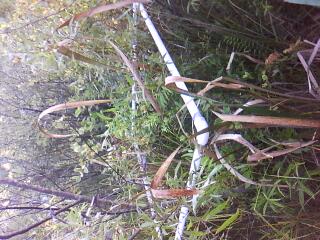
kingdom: Plantae
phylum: Tracheophyta
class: Magnoliopsida
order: Malpighiales
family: Salicaceae
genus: Salix
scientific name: Salix serissima
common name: Autumn willow
